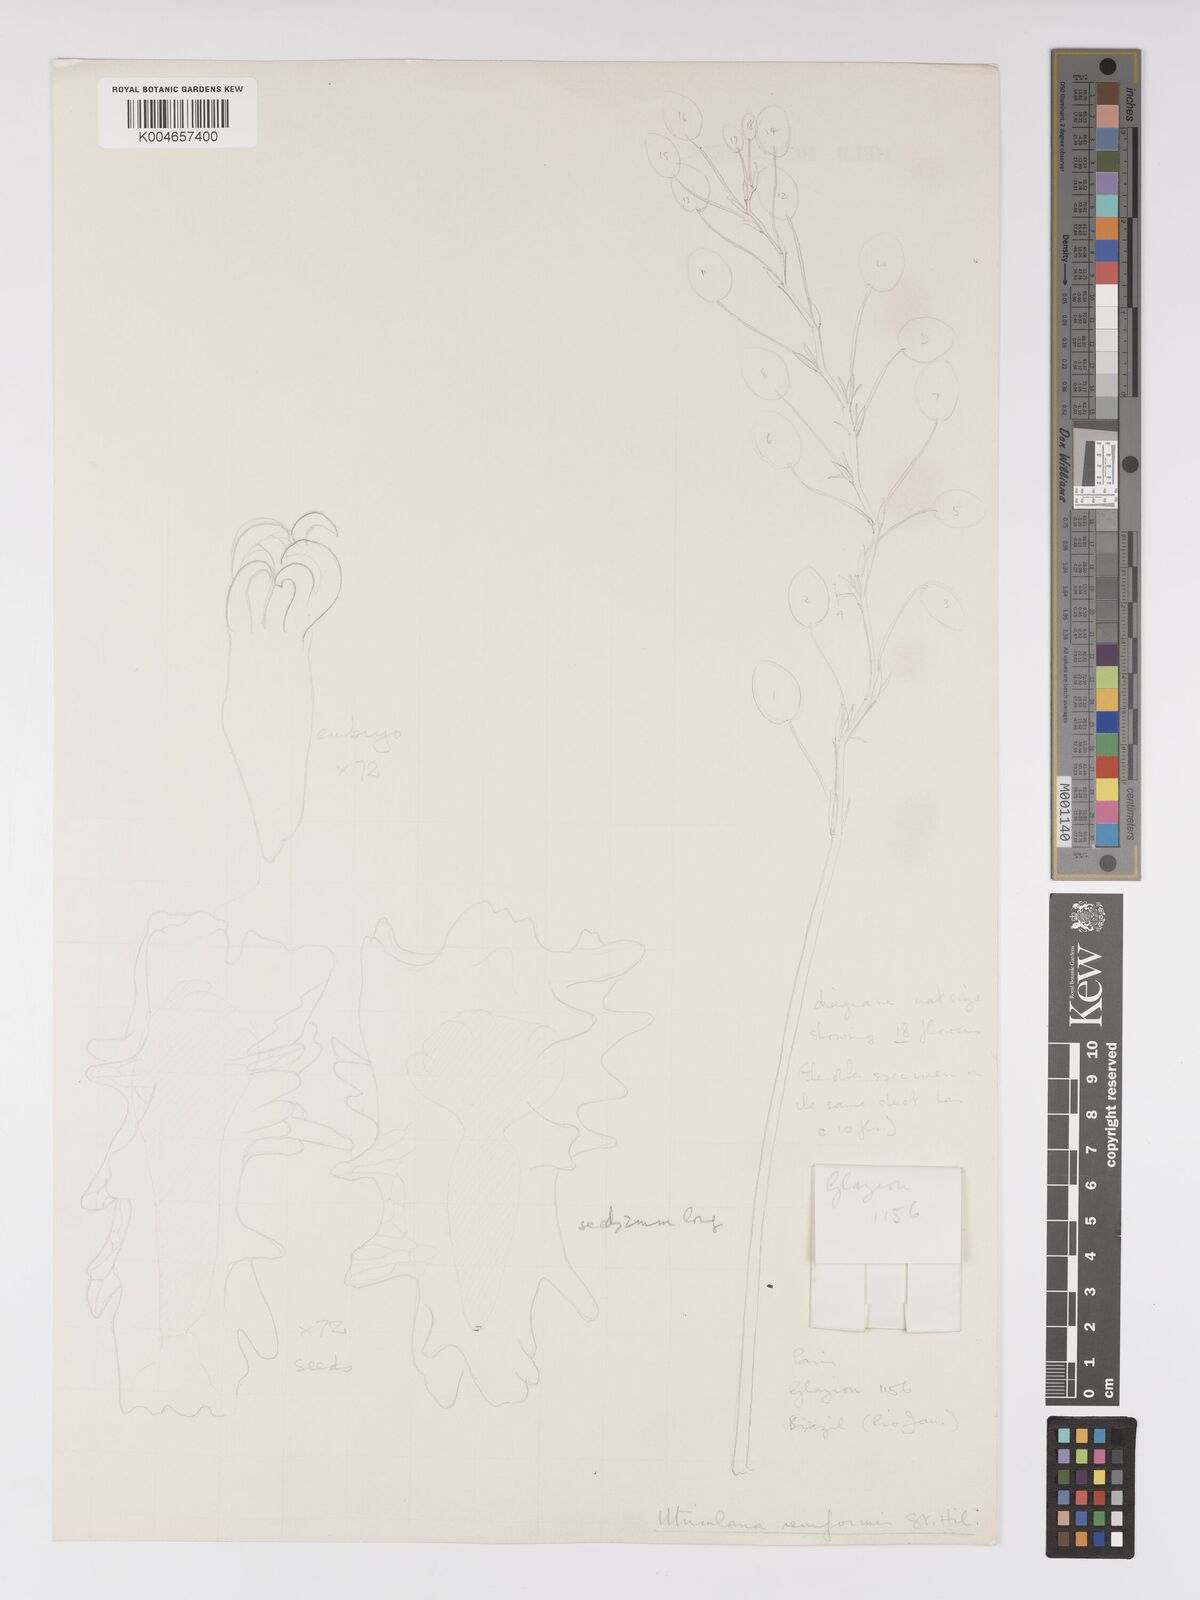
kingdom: Plantae
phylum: Tracheophyta
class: Magnoliopsida
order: Lamiales
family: Lentibulariaceae
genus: Utricularia
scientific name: Utricularia reniformis
